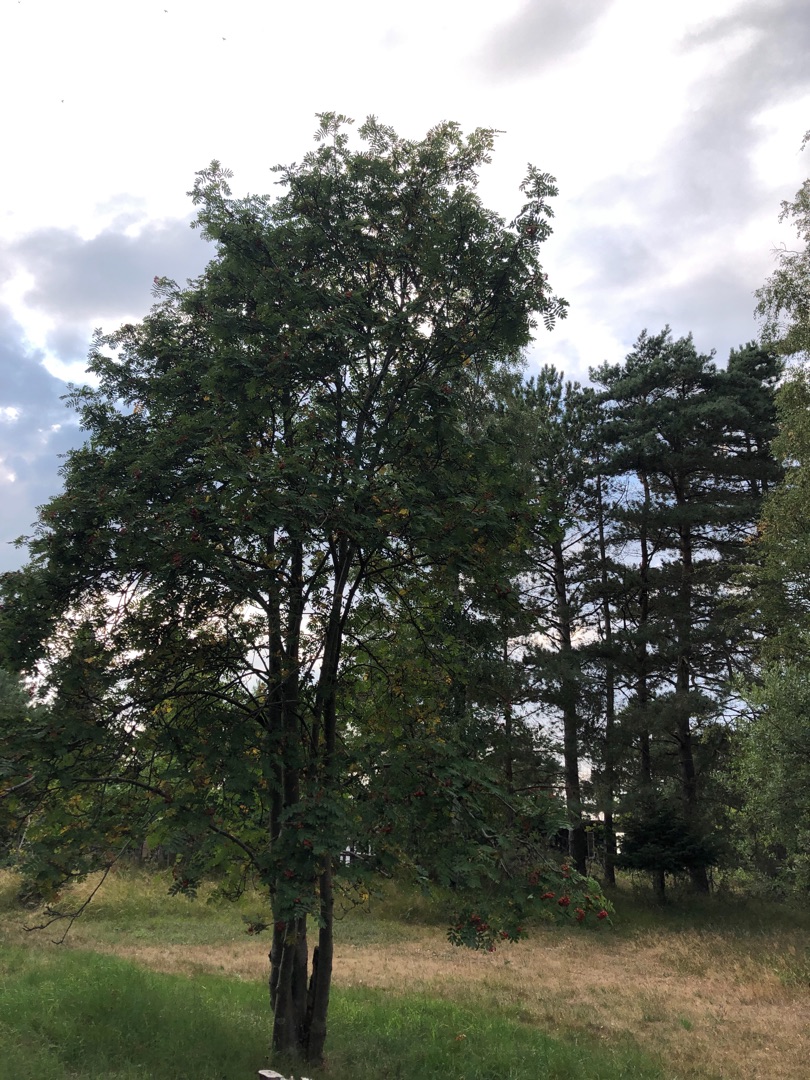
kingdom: Plantae
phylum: Tracheophyta
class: Magnoliopsida
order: Rosales
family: Rosaceae
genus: Sorbus
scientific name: Sorbus aucuparia
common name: Almindelig røn
